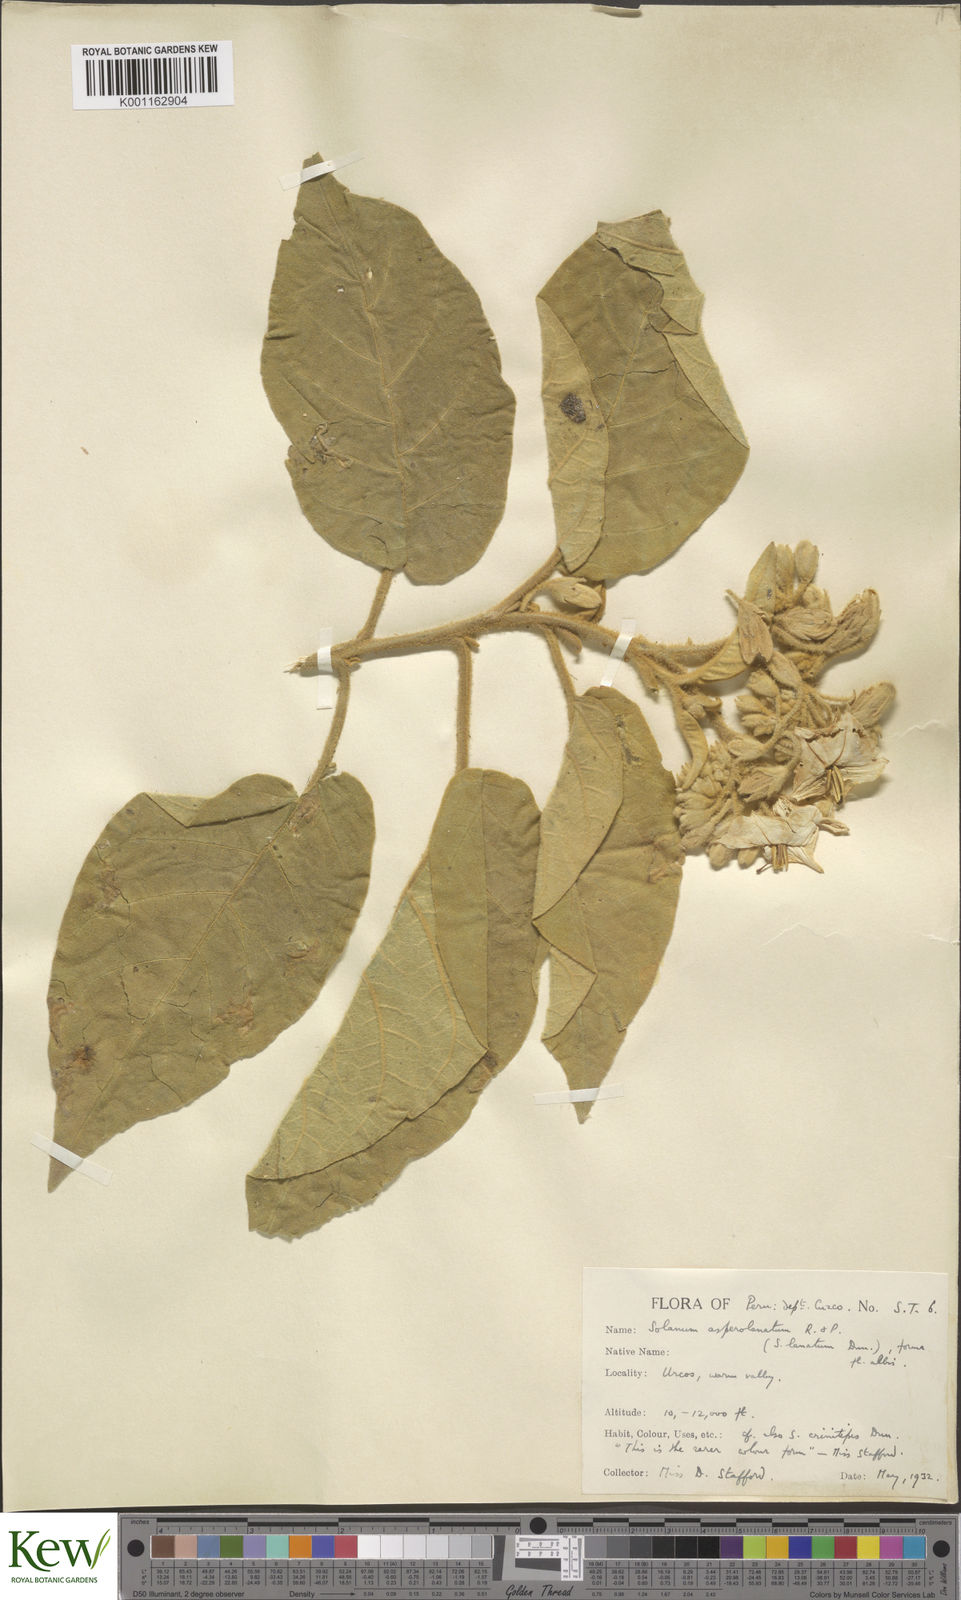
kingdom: Plantae
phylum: Tracheophyta
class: Magnoliopsida
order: Solanales
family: Solanaceae
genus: Solanum
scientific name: Solanum asperolanatum
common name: Devil's-fig
